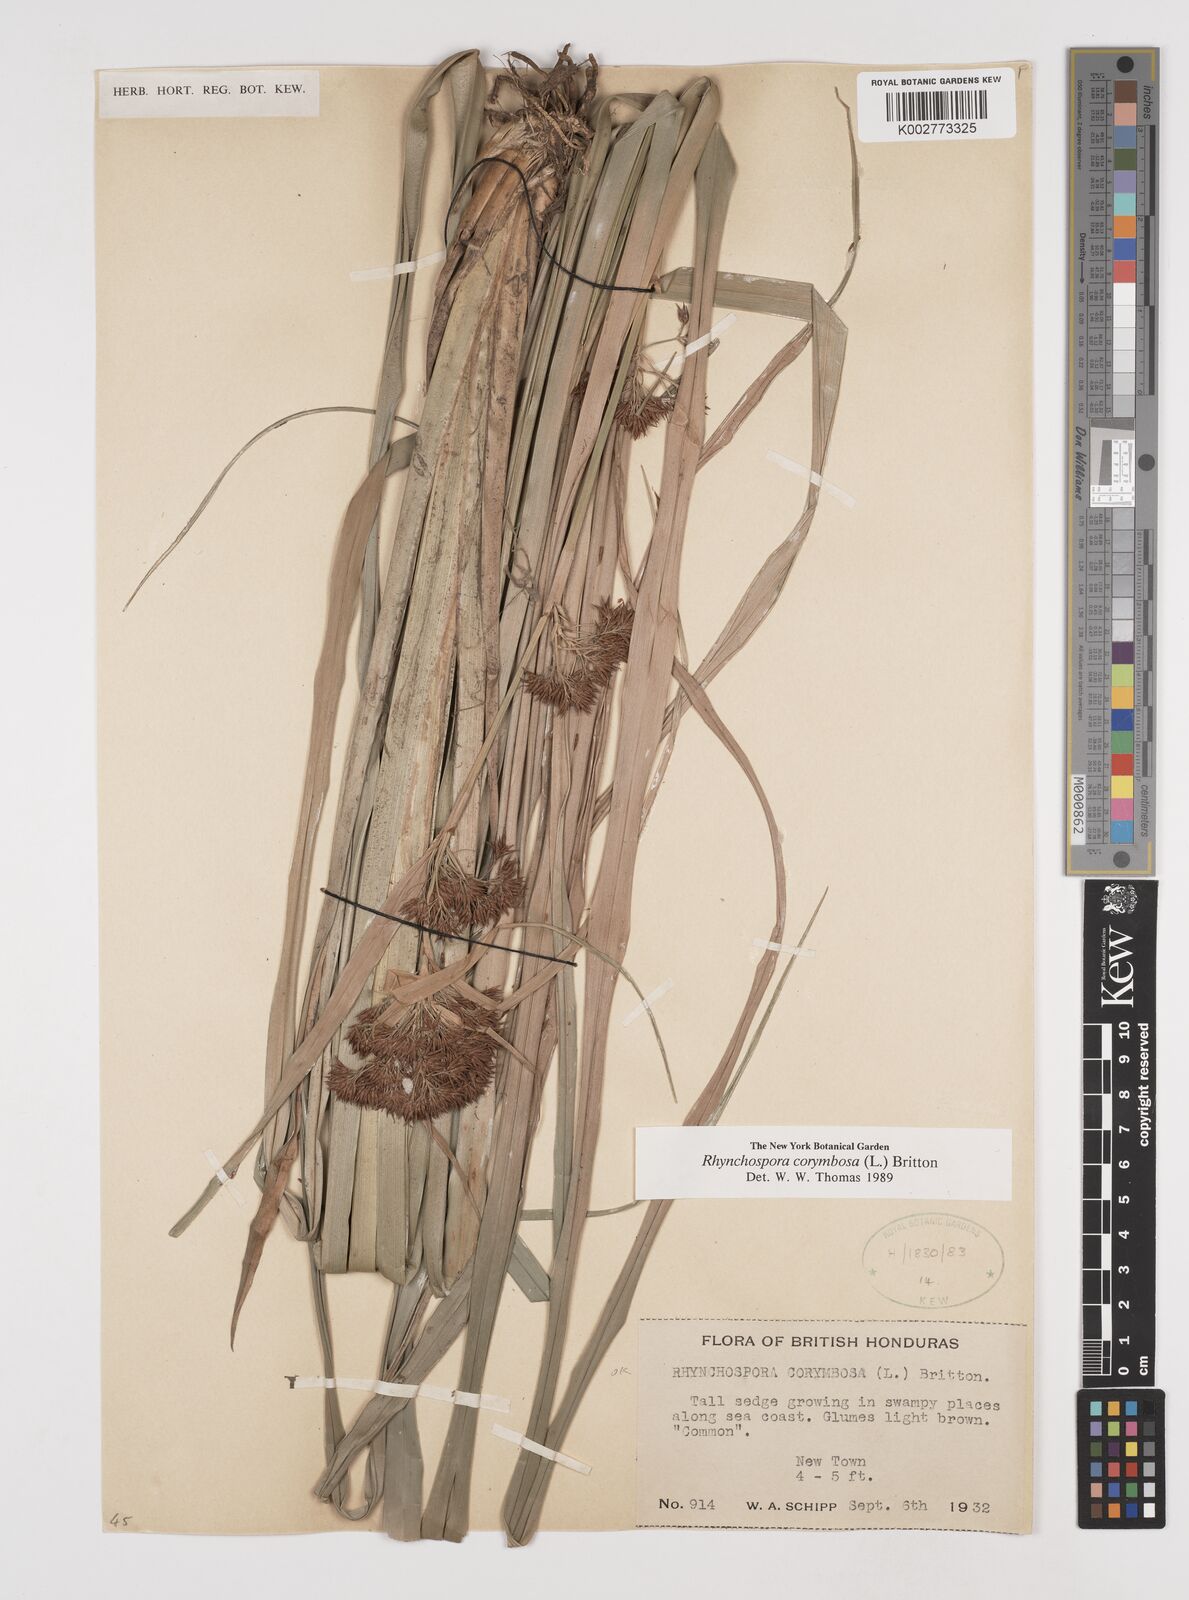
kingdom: Plantae
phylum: Tracheophyta
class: Liliopsida
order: Poales
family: Cyperaceae
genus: Rhynchospora
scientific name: Rhynchospora corymbosa
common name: Golden beak sedge
